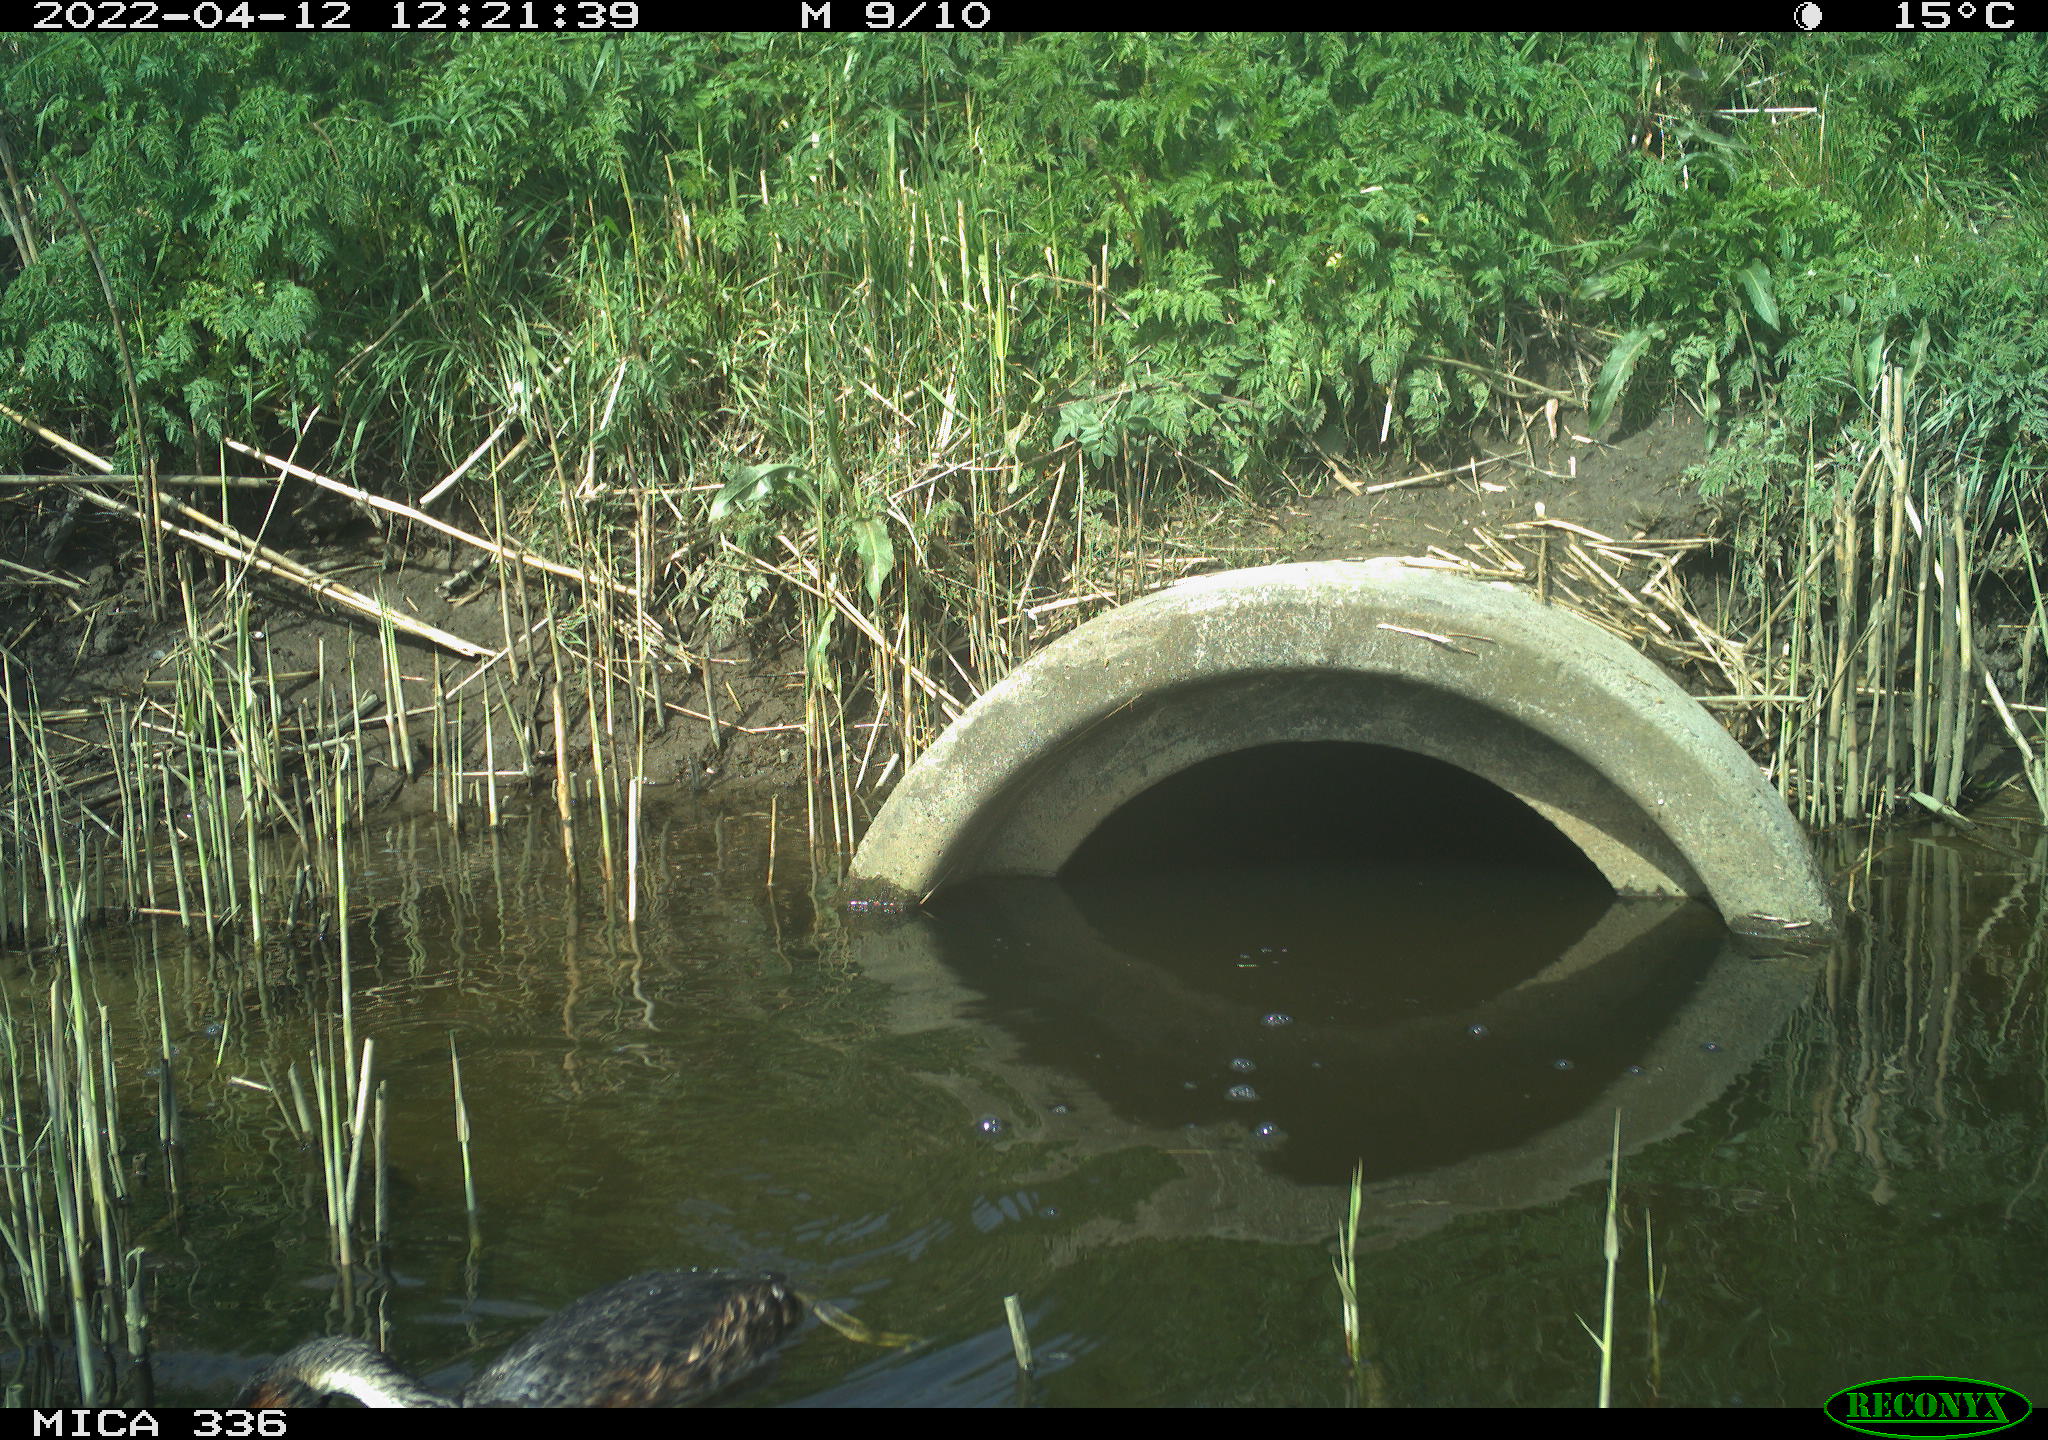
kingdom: Animalia
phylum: Chordata
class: Aves
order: Podicipediformes
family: Podicipedidae
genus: Podiceps
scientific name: Podiceps cristatus
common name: Great crested grebe
